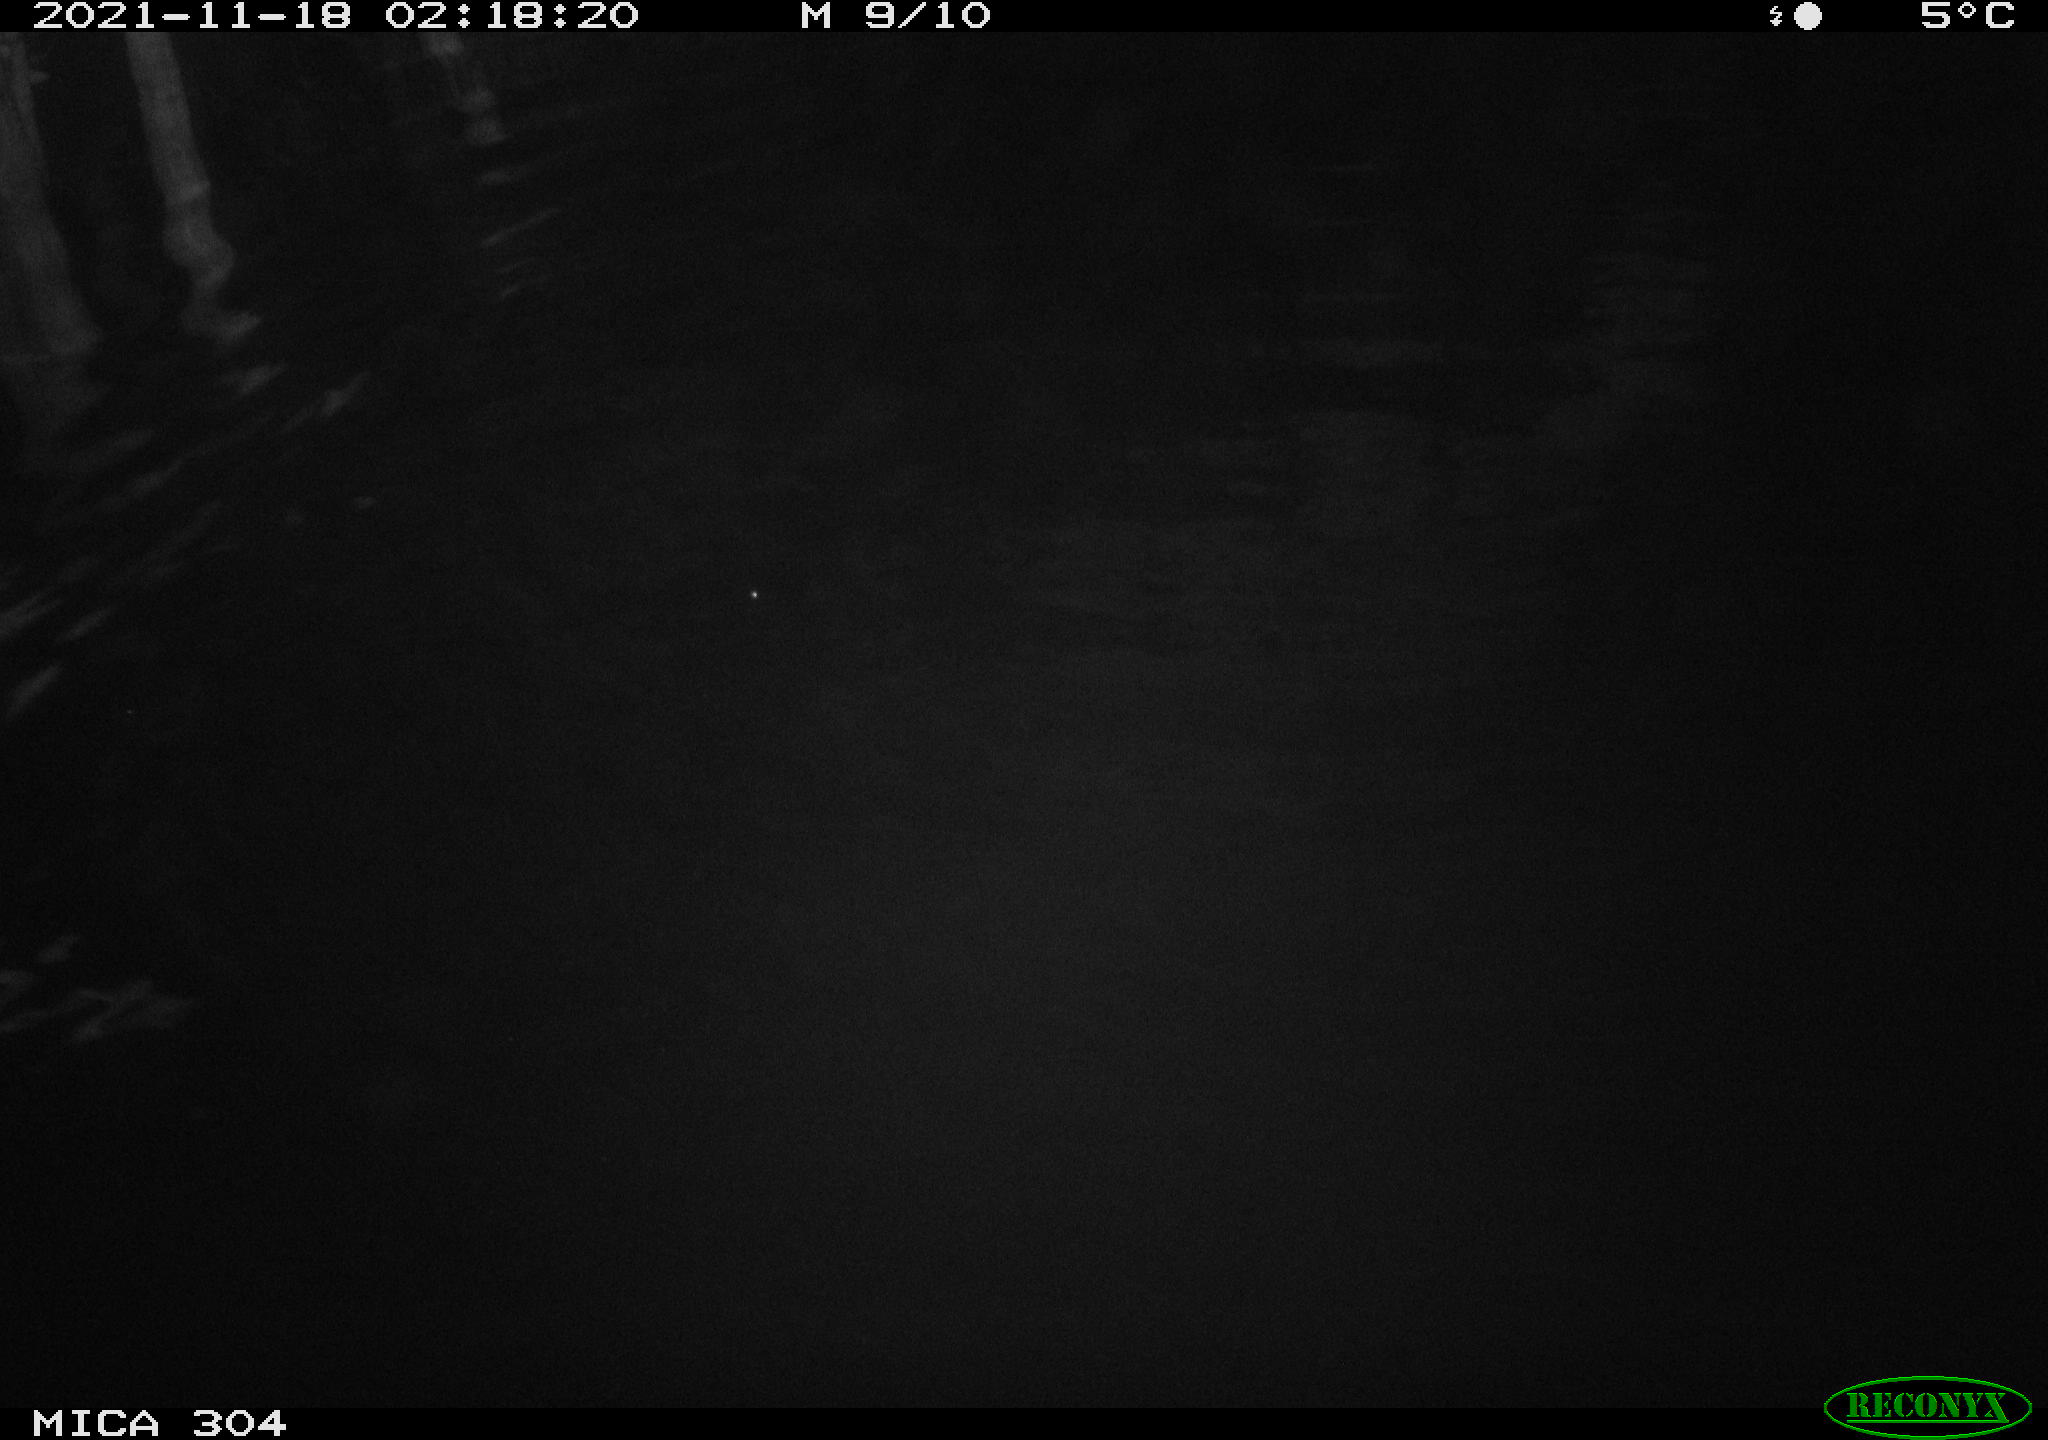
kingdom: Animalia
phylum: Chordata
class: Mammalia
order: Rodentia
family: Cricetidae
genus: Ondatra
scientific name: Ondatra zibethicus
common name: Muskrat
